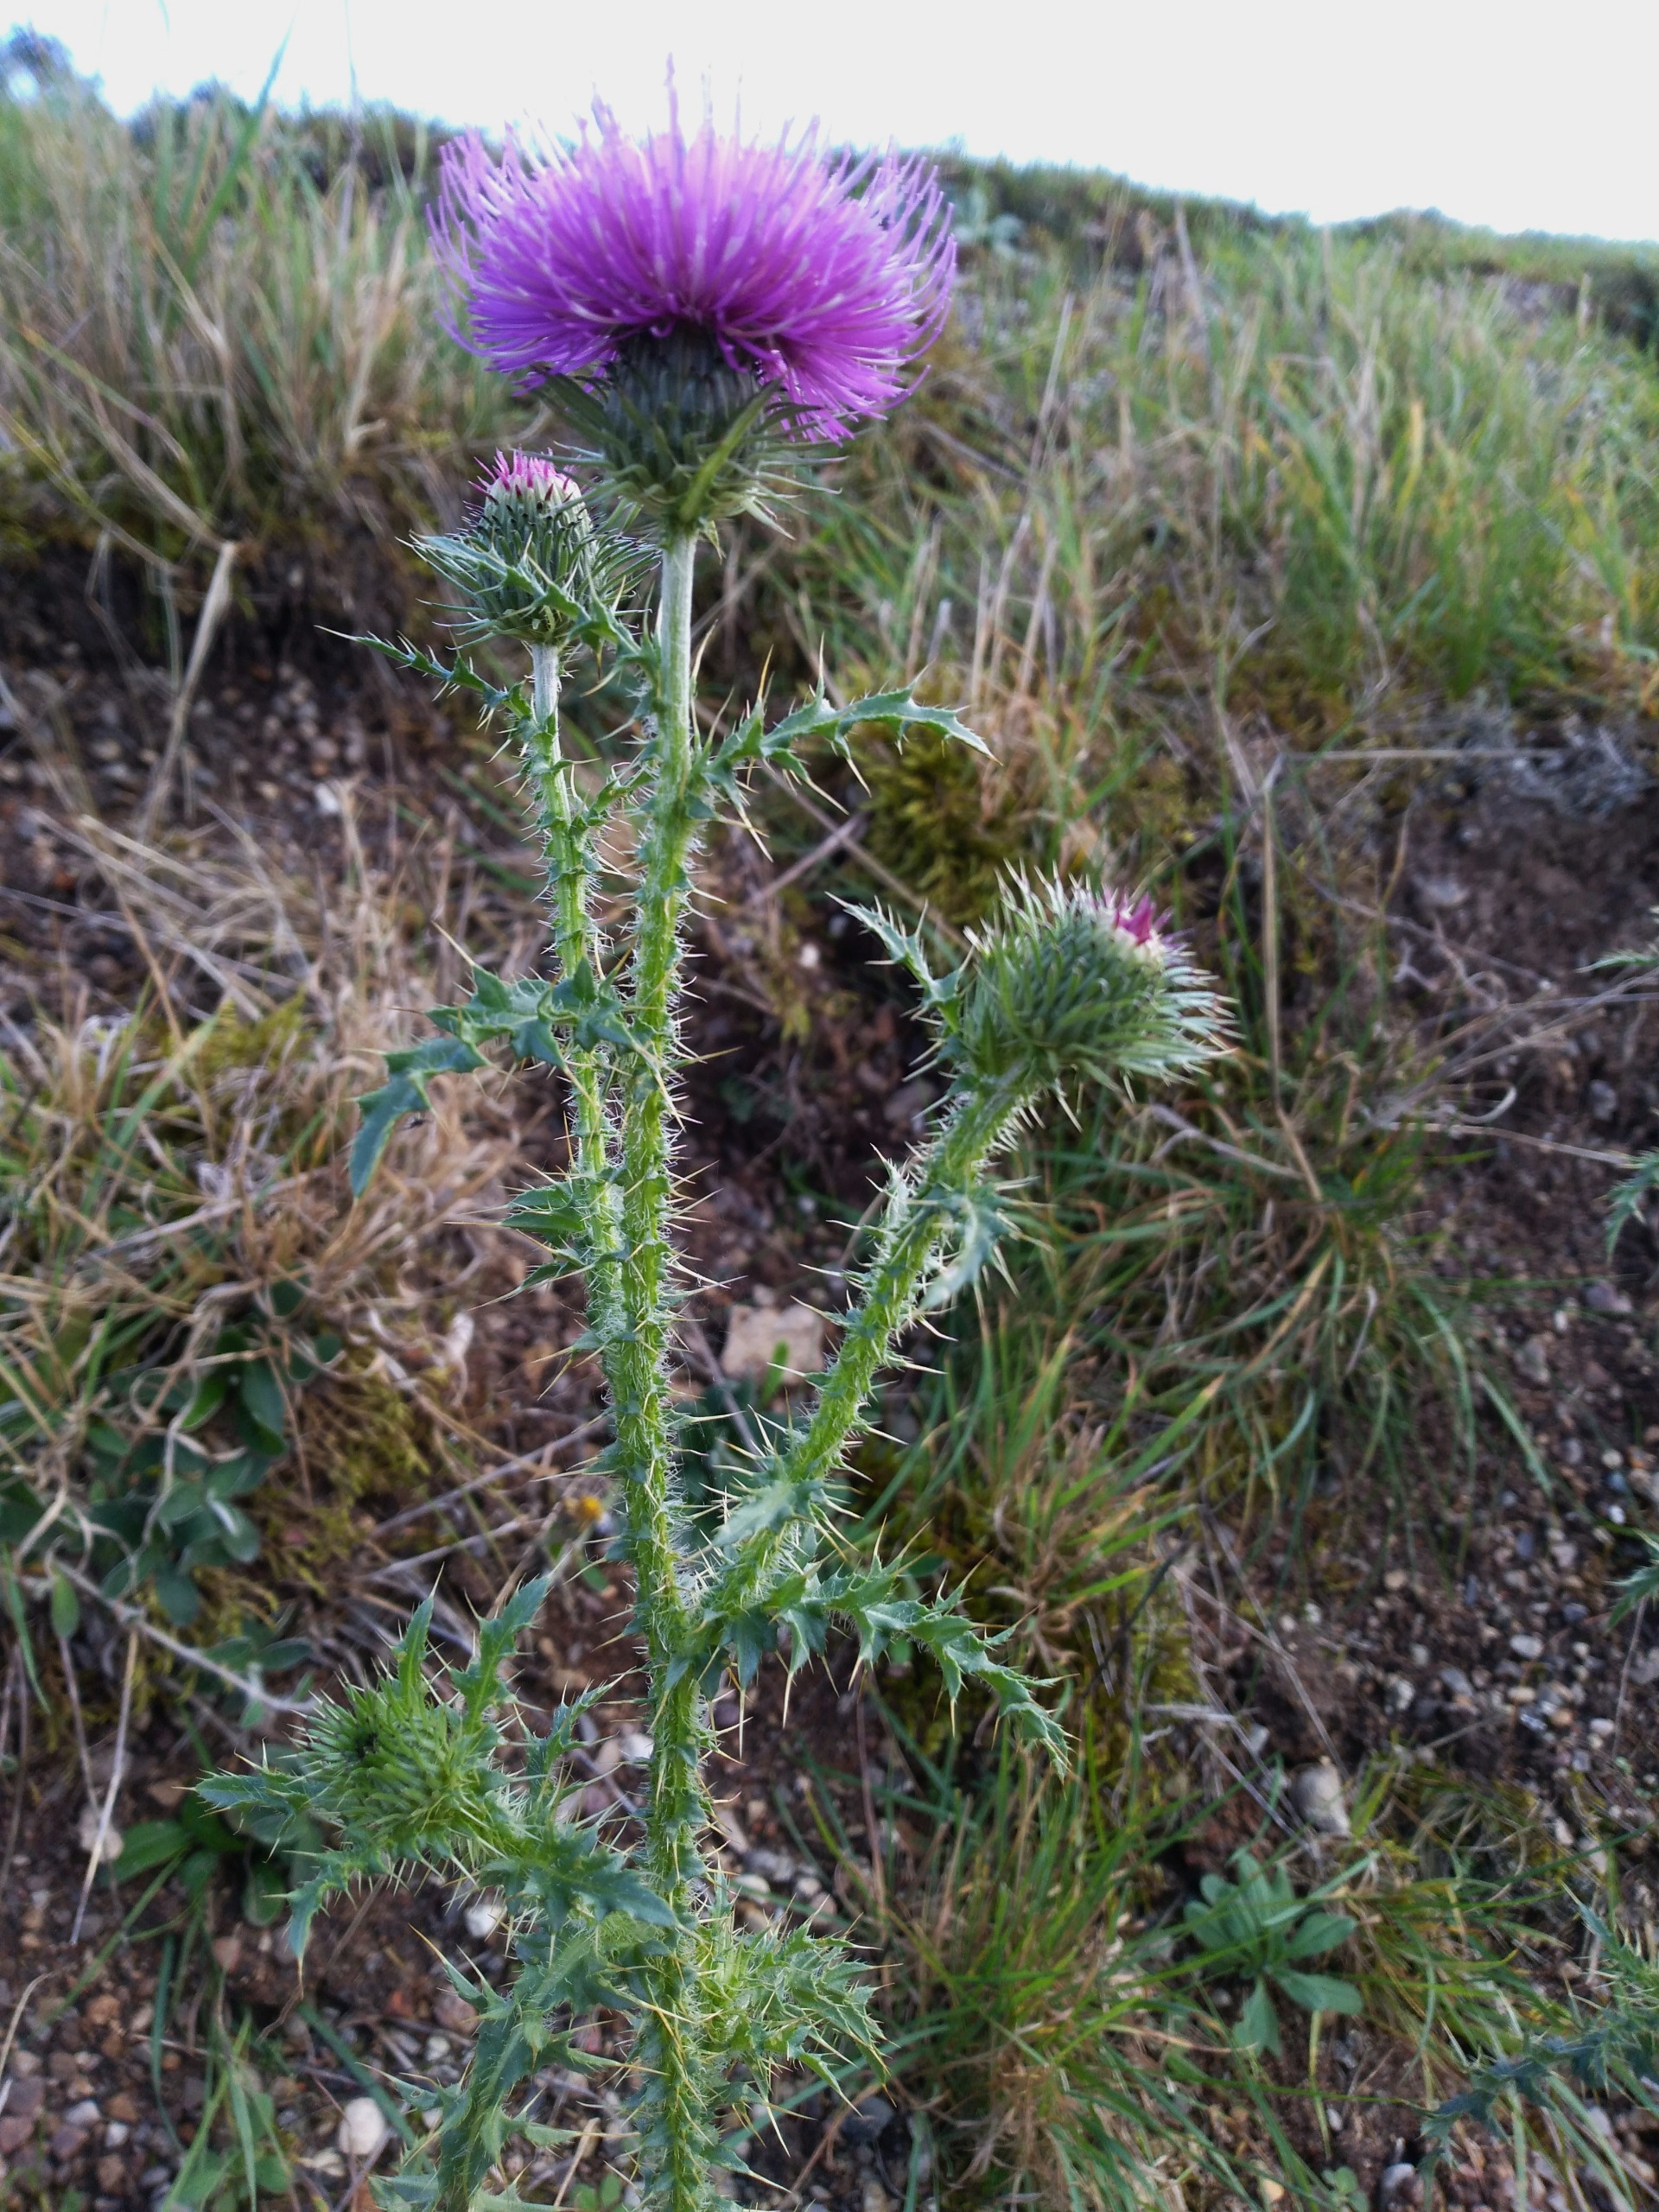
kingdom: Plantae
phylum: Tracheophyta
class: Magnoliopsida
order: Asterales
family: Asteraceae
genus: Carduus
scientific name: Carduus acanthoides
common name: Tornet tidsel
